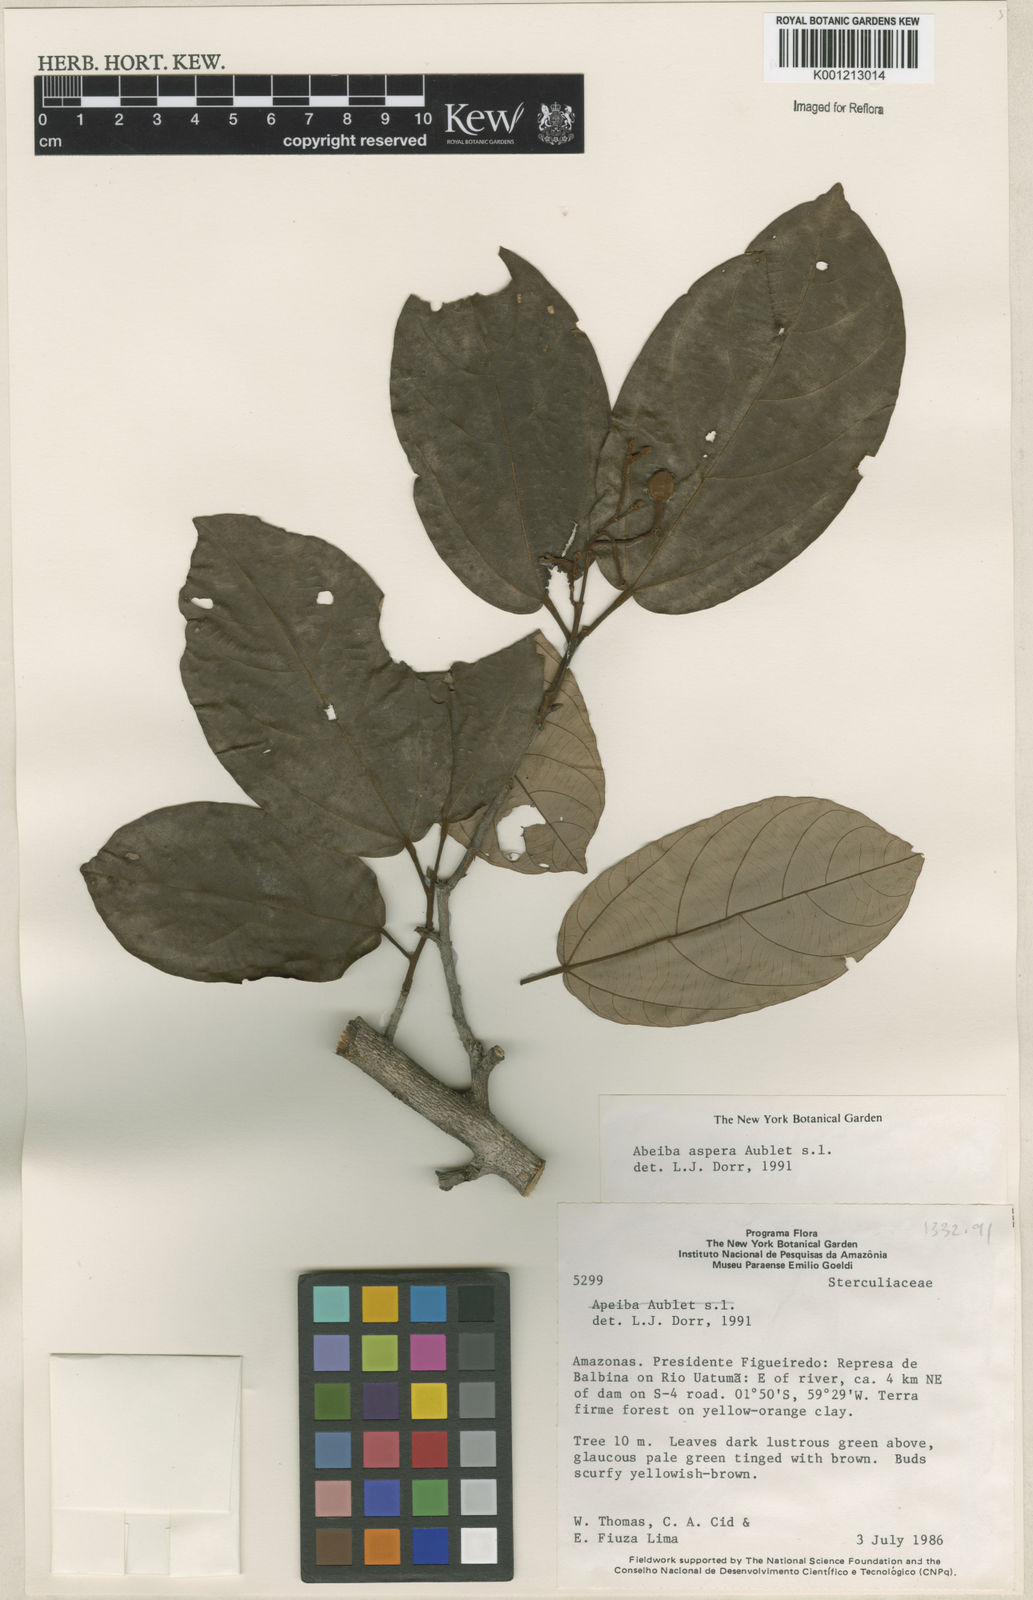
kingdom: Plantae
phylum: Tracheophyta
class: Magnoliopsida
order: Malvales
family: Malvaceae
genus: Apeiba
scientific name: Apeiba
